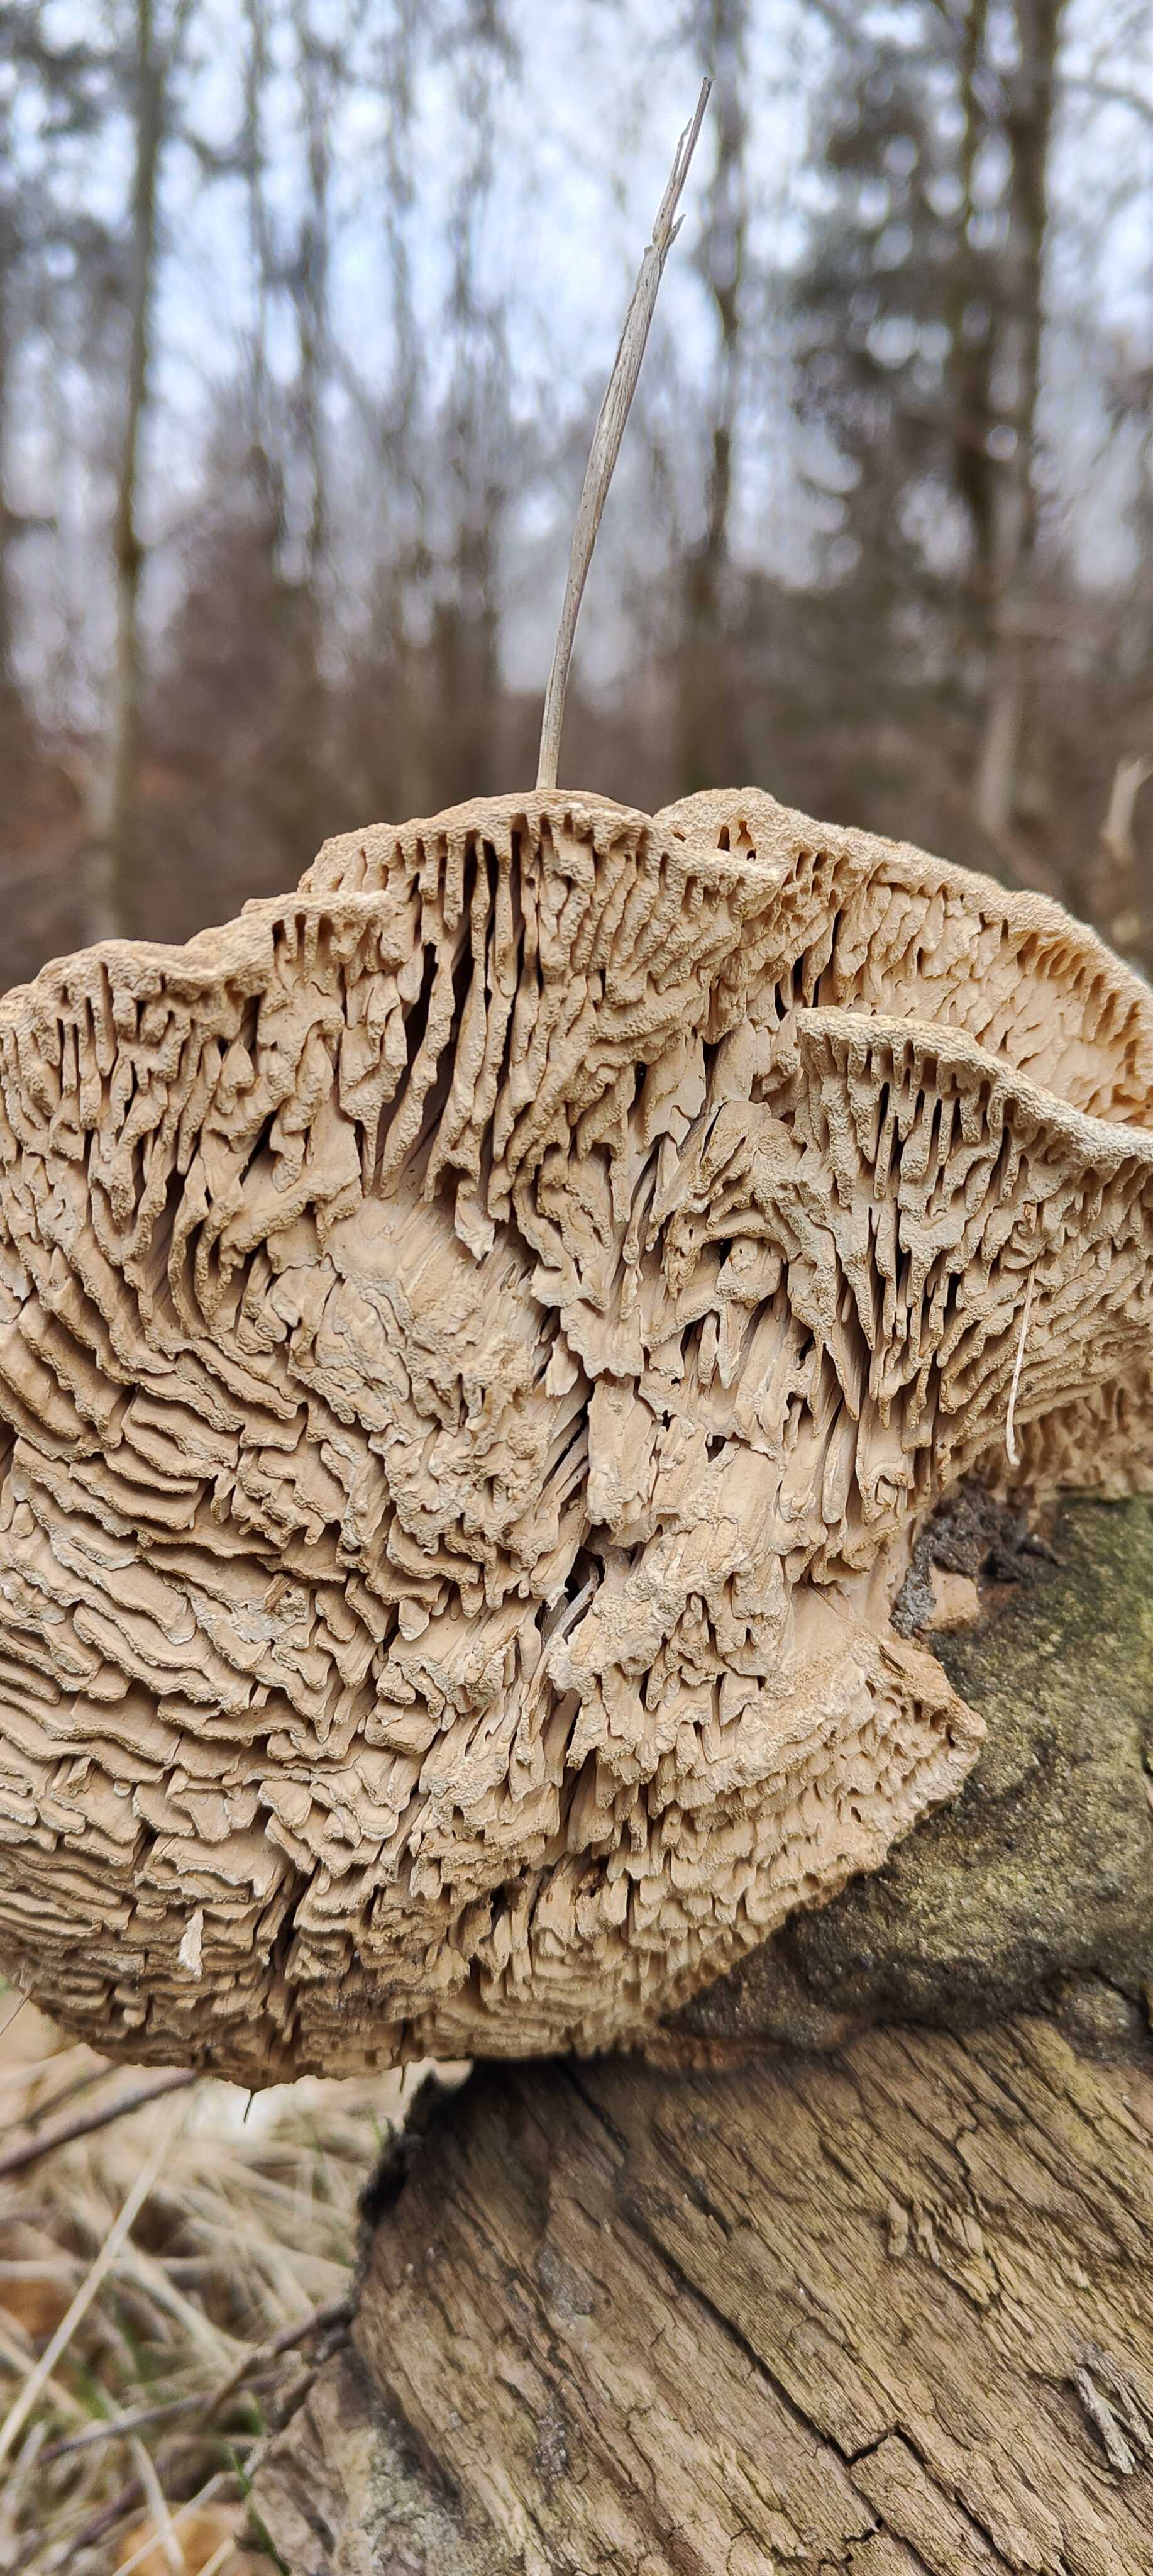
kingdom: Fungi
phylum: Basidiomycota
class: Agaricomycetes
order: Polyporales
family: Fomitopsidaceae
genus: Daedalea
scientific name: Daedalea quercina
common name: ege-labyrintsvamp
